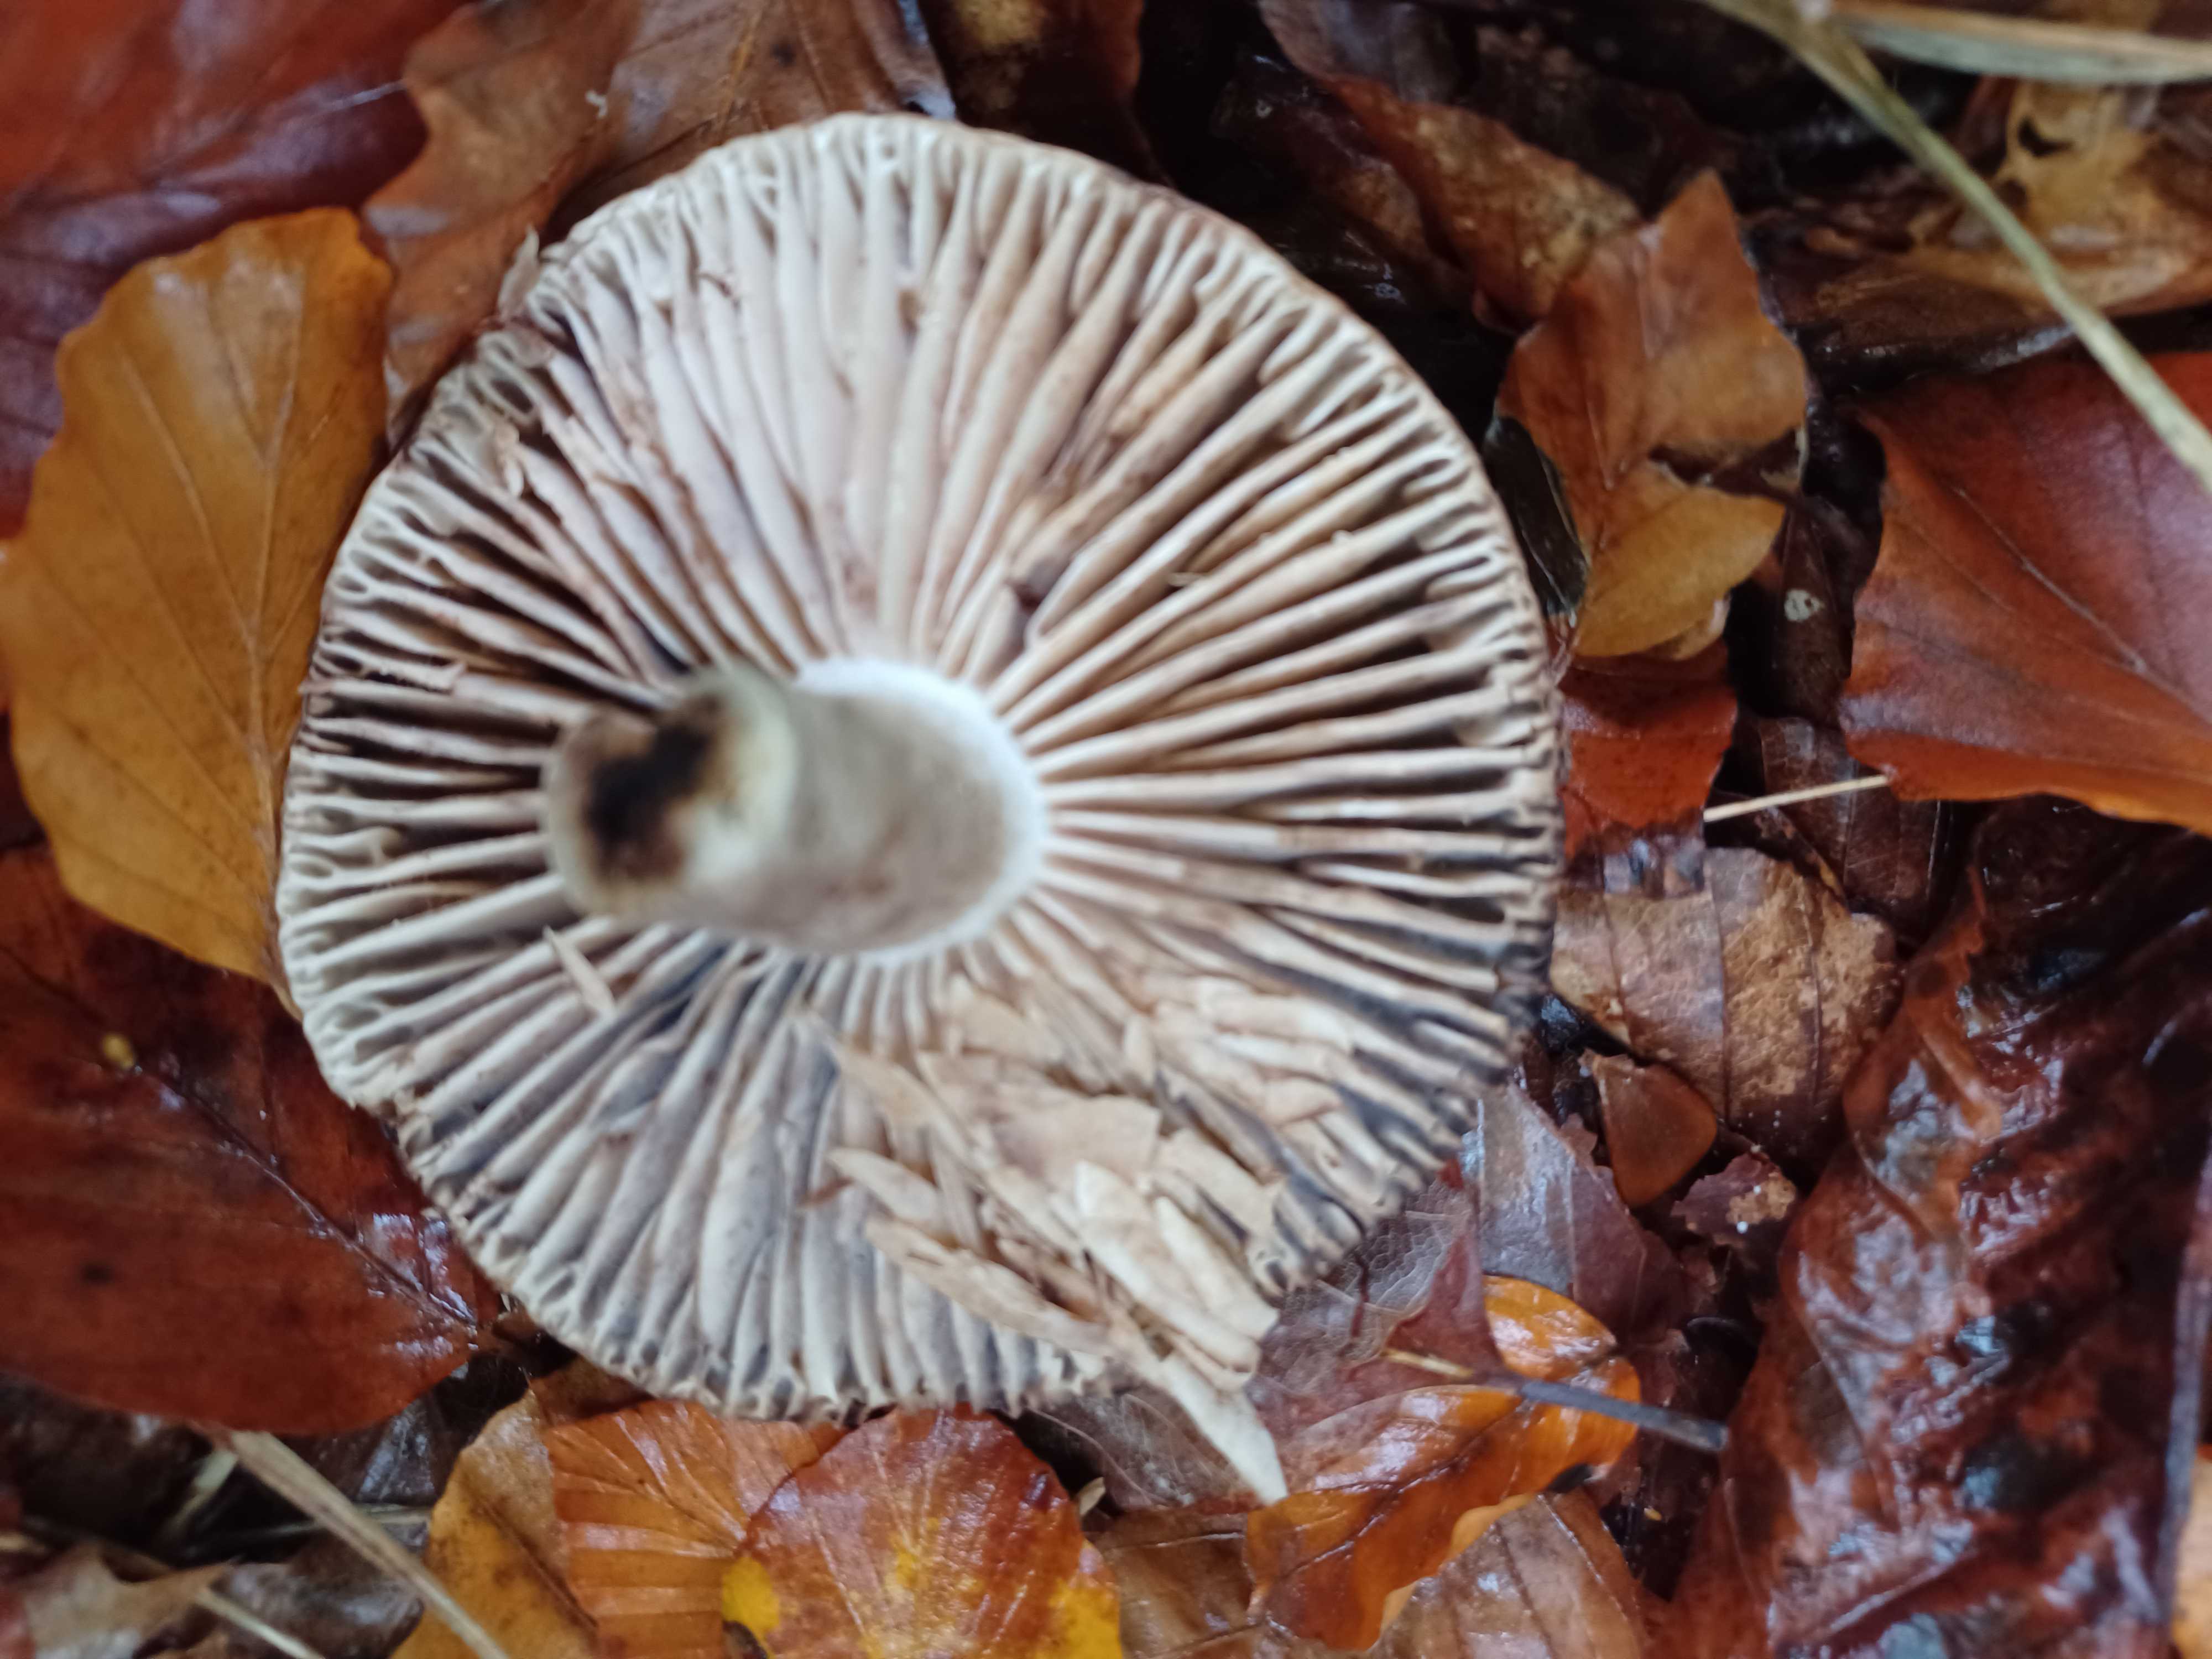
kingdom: Fungi
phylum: Basidiomycota
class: Agaricomycetes
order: Russulales
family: Russulaceae
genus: Russula
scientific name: Russula adusta
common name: sværtende skørhat
